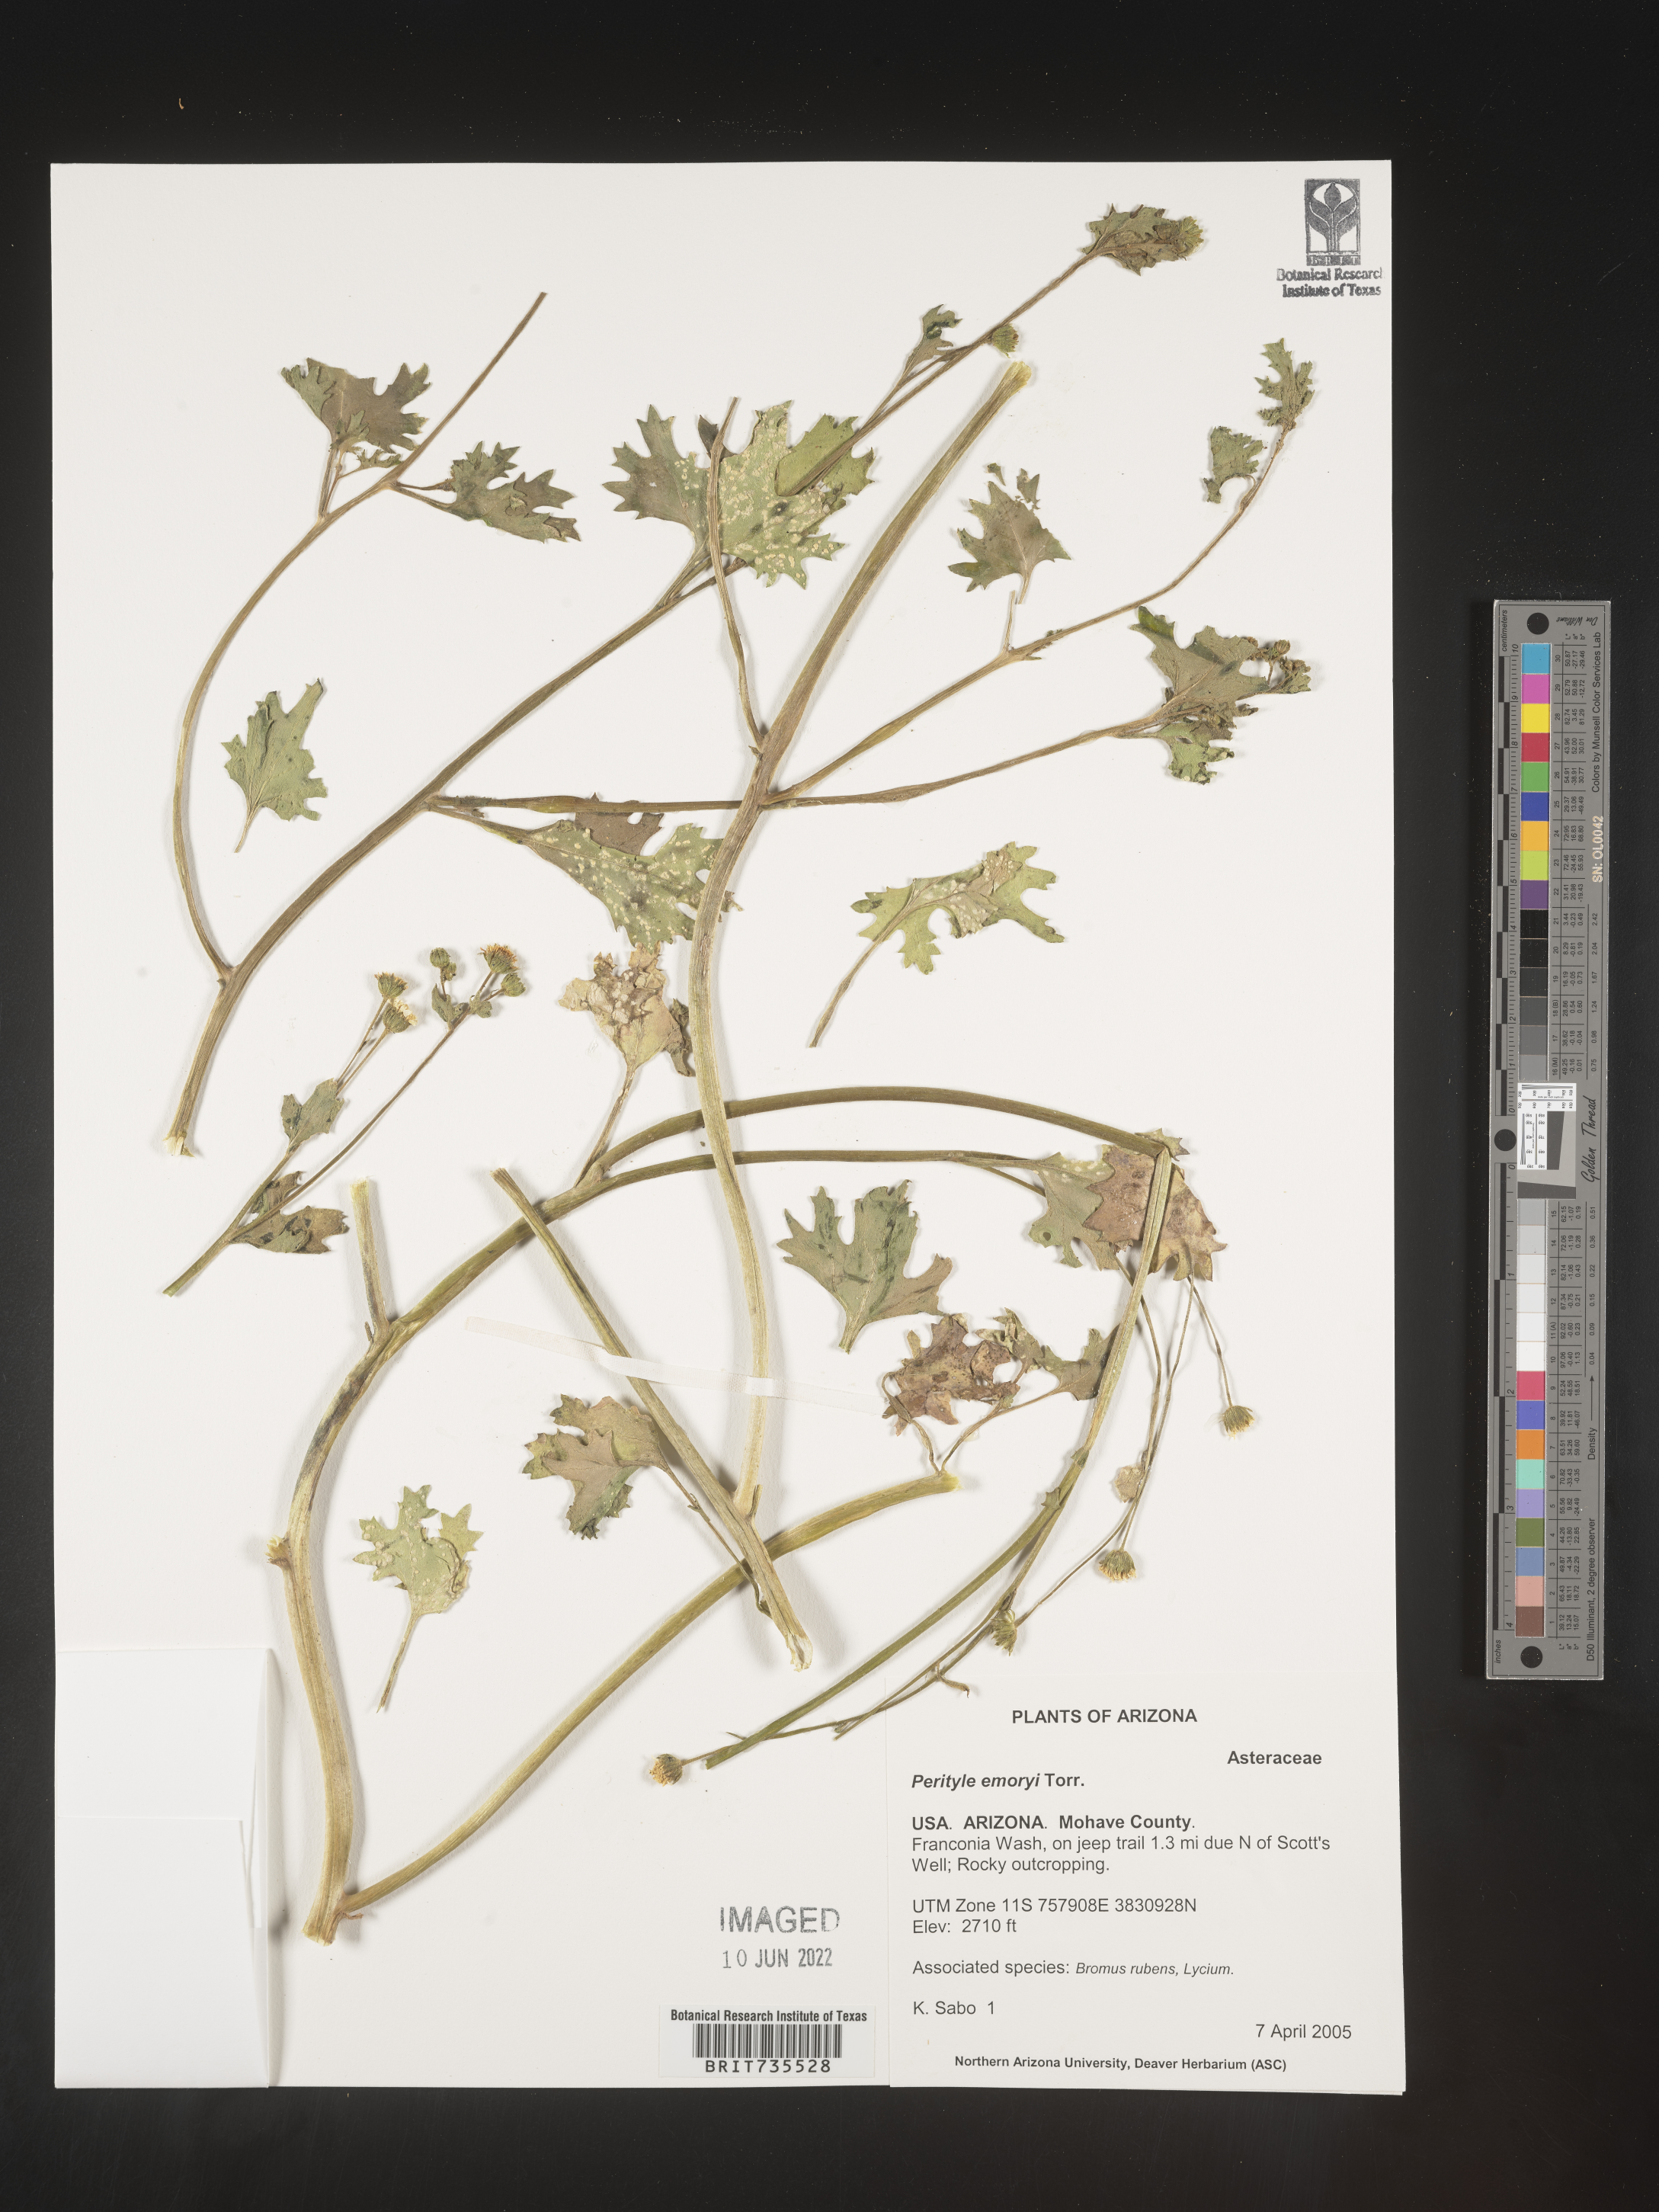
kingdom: Plantae
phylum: Tracheophyta
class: Magnoliopsida
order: Asterales
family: Asteraceae
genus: Perityle
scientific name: Perityle
